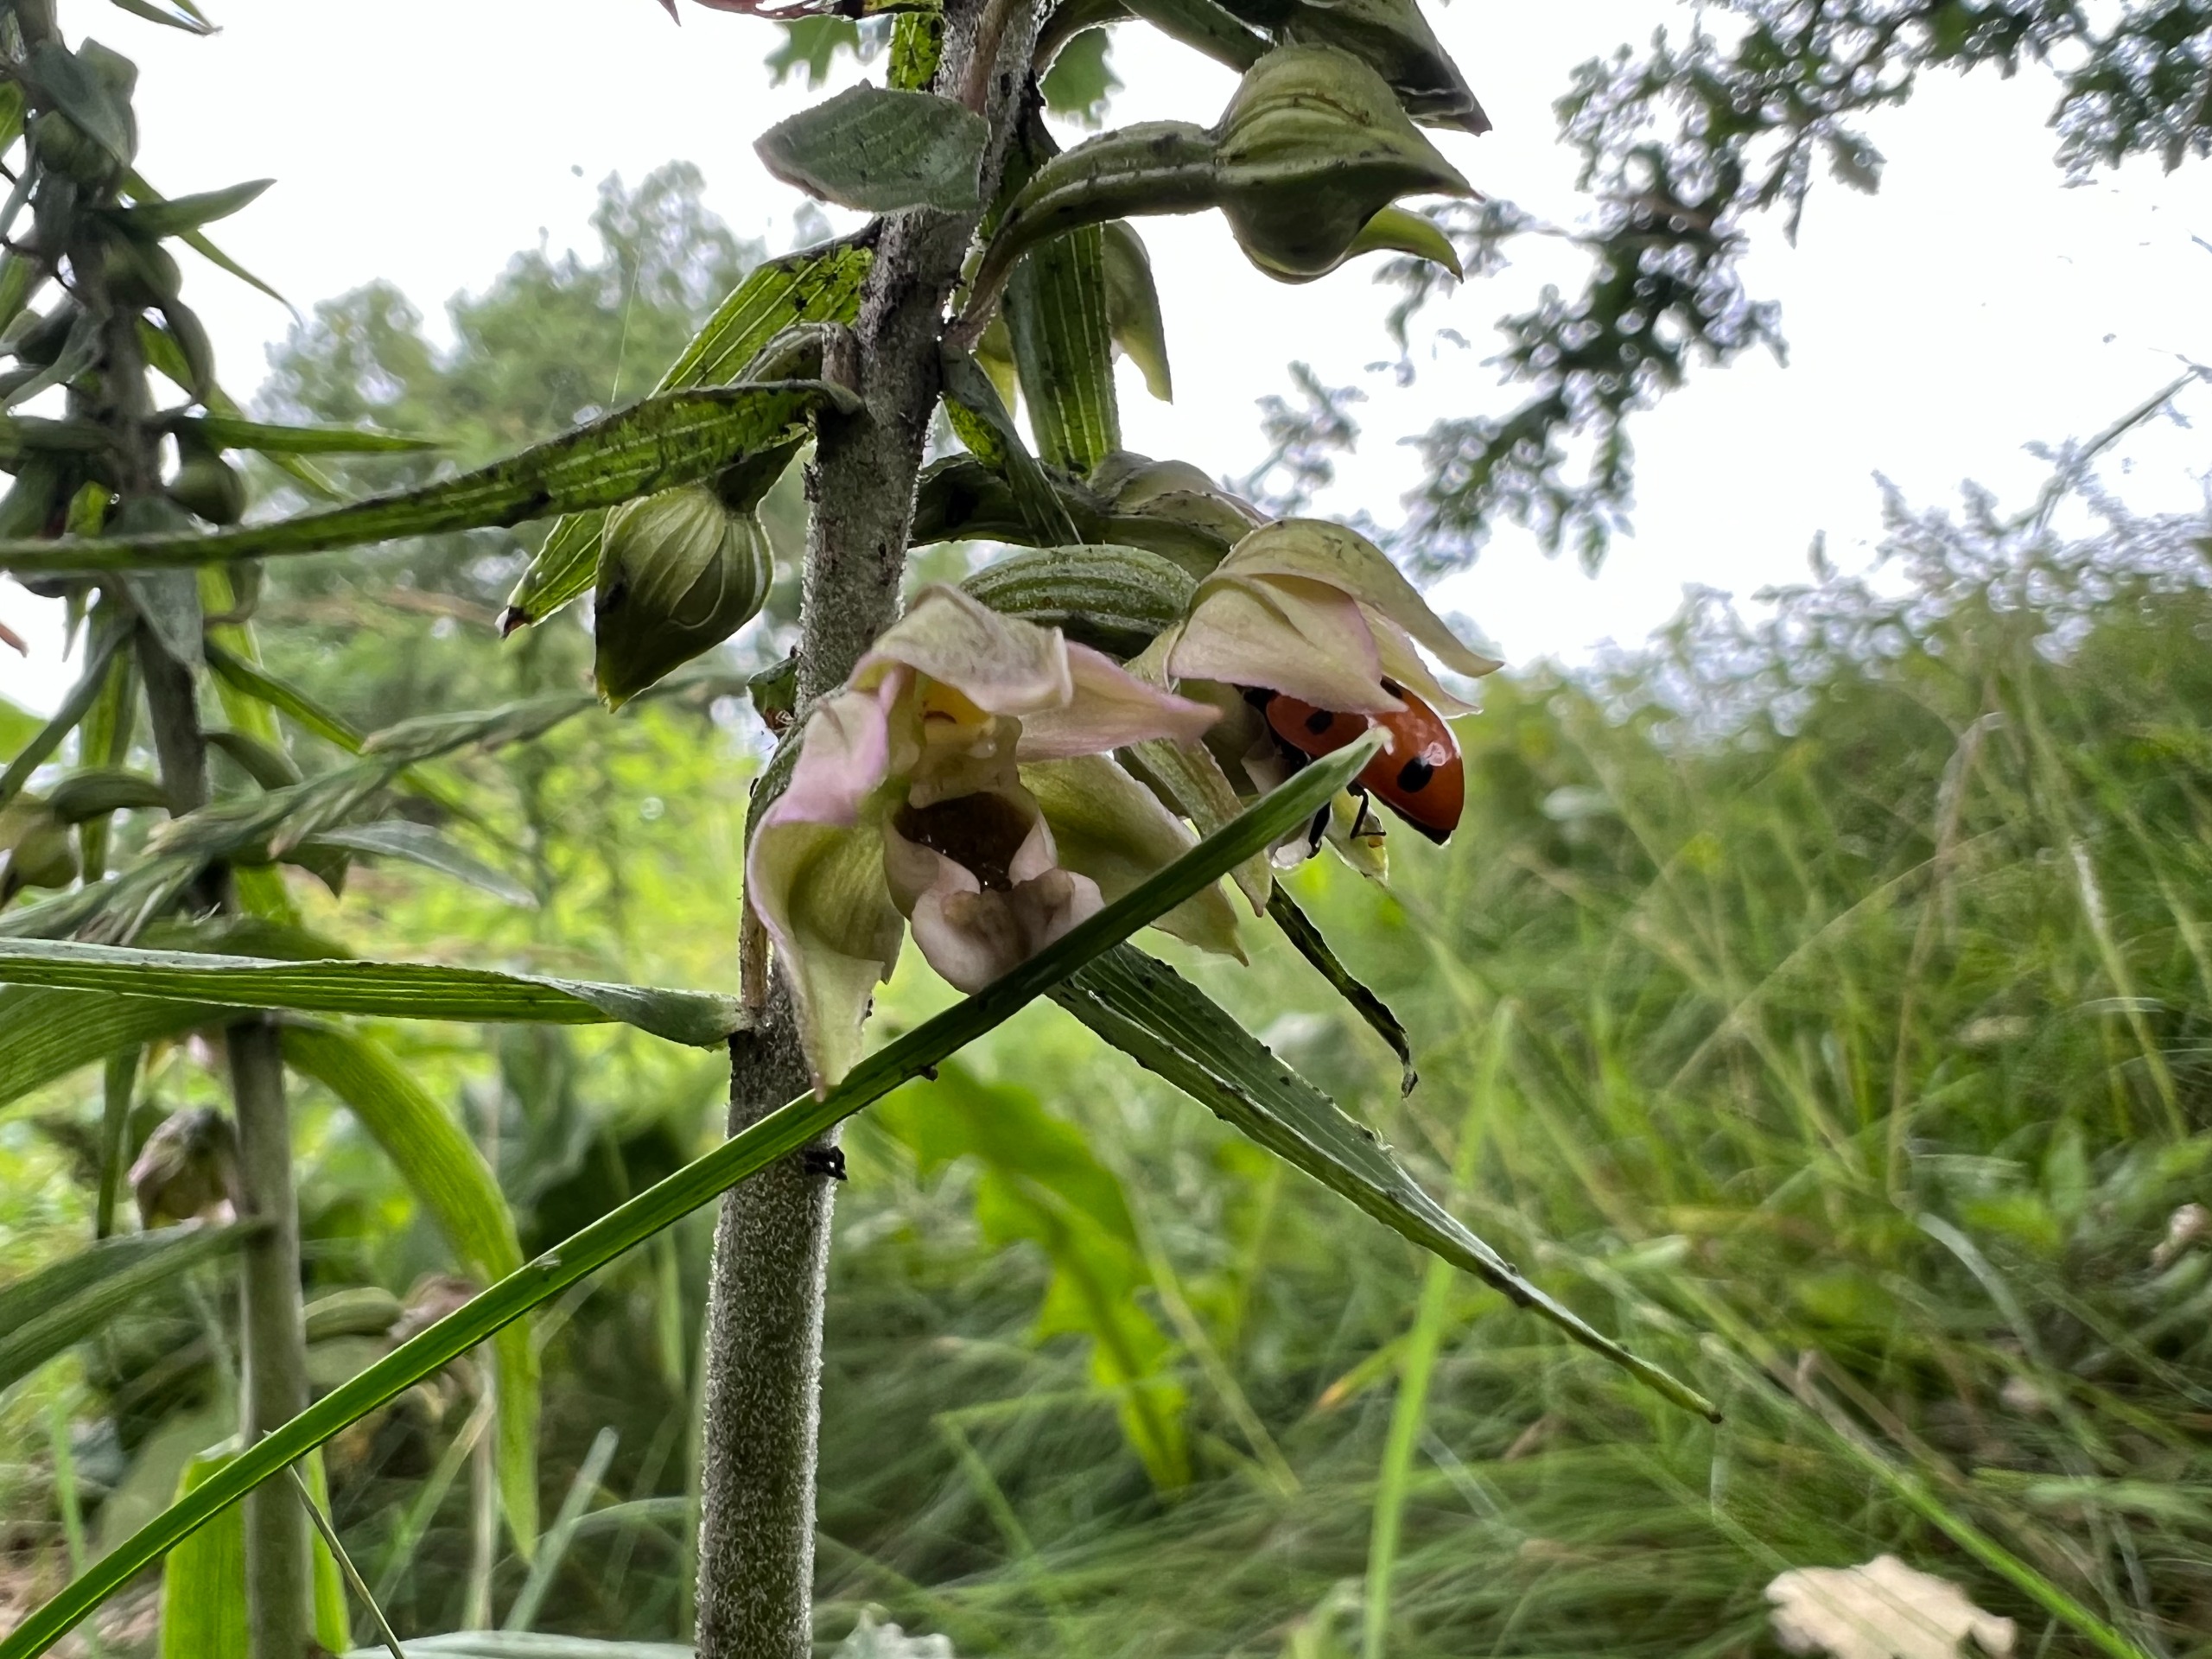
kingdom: Plantae
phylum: Tracheophyta
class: Liliopsida
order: Asparagales
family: Orchidaceae
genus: Epipactis
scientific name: Epipactis helleborine
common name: Skov-hullæbe (underart)
